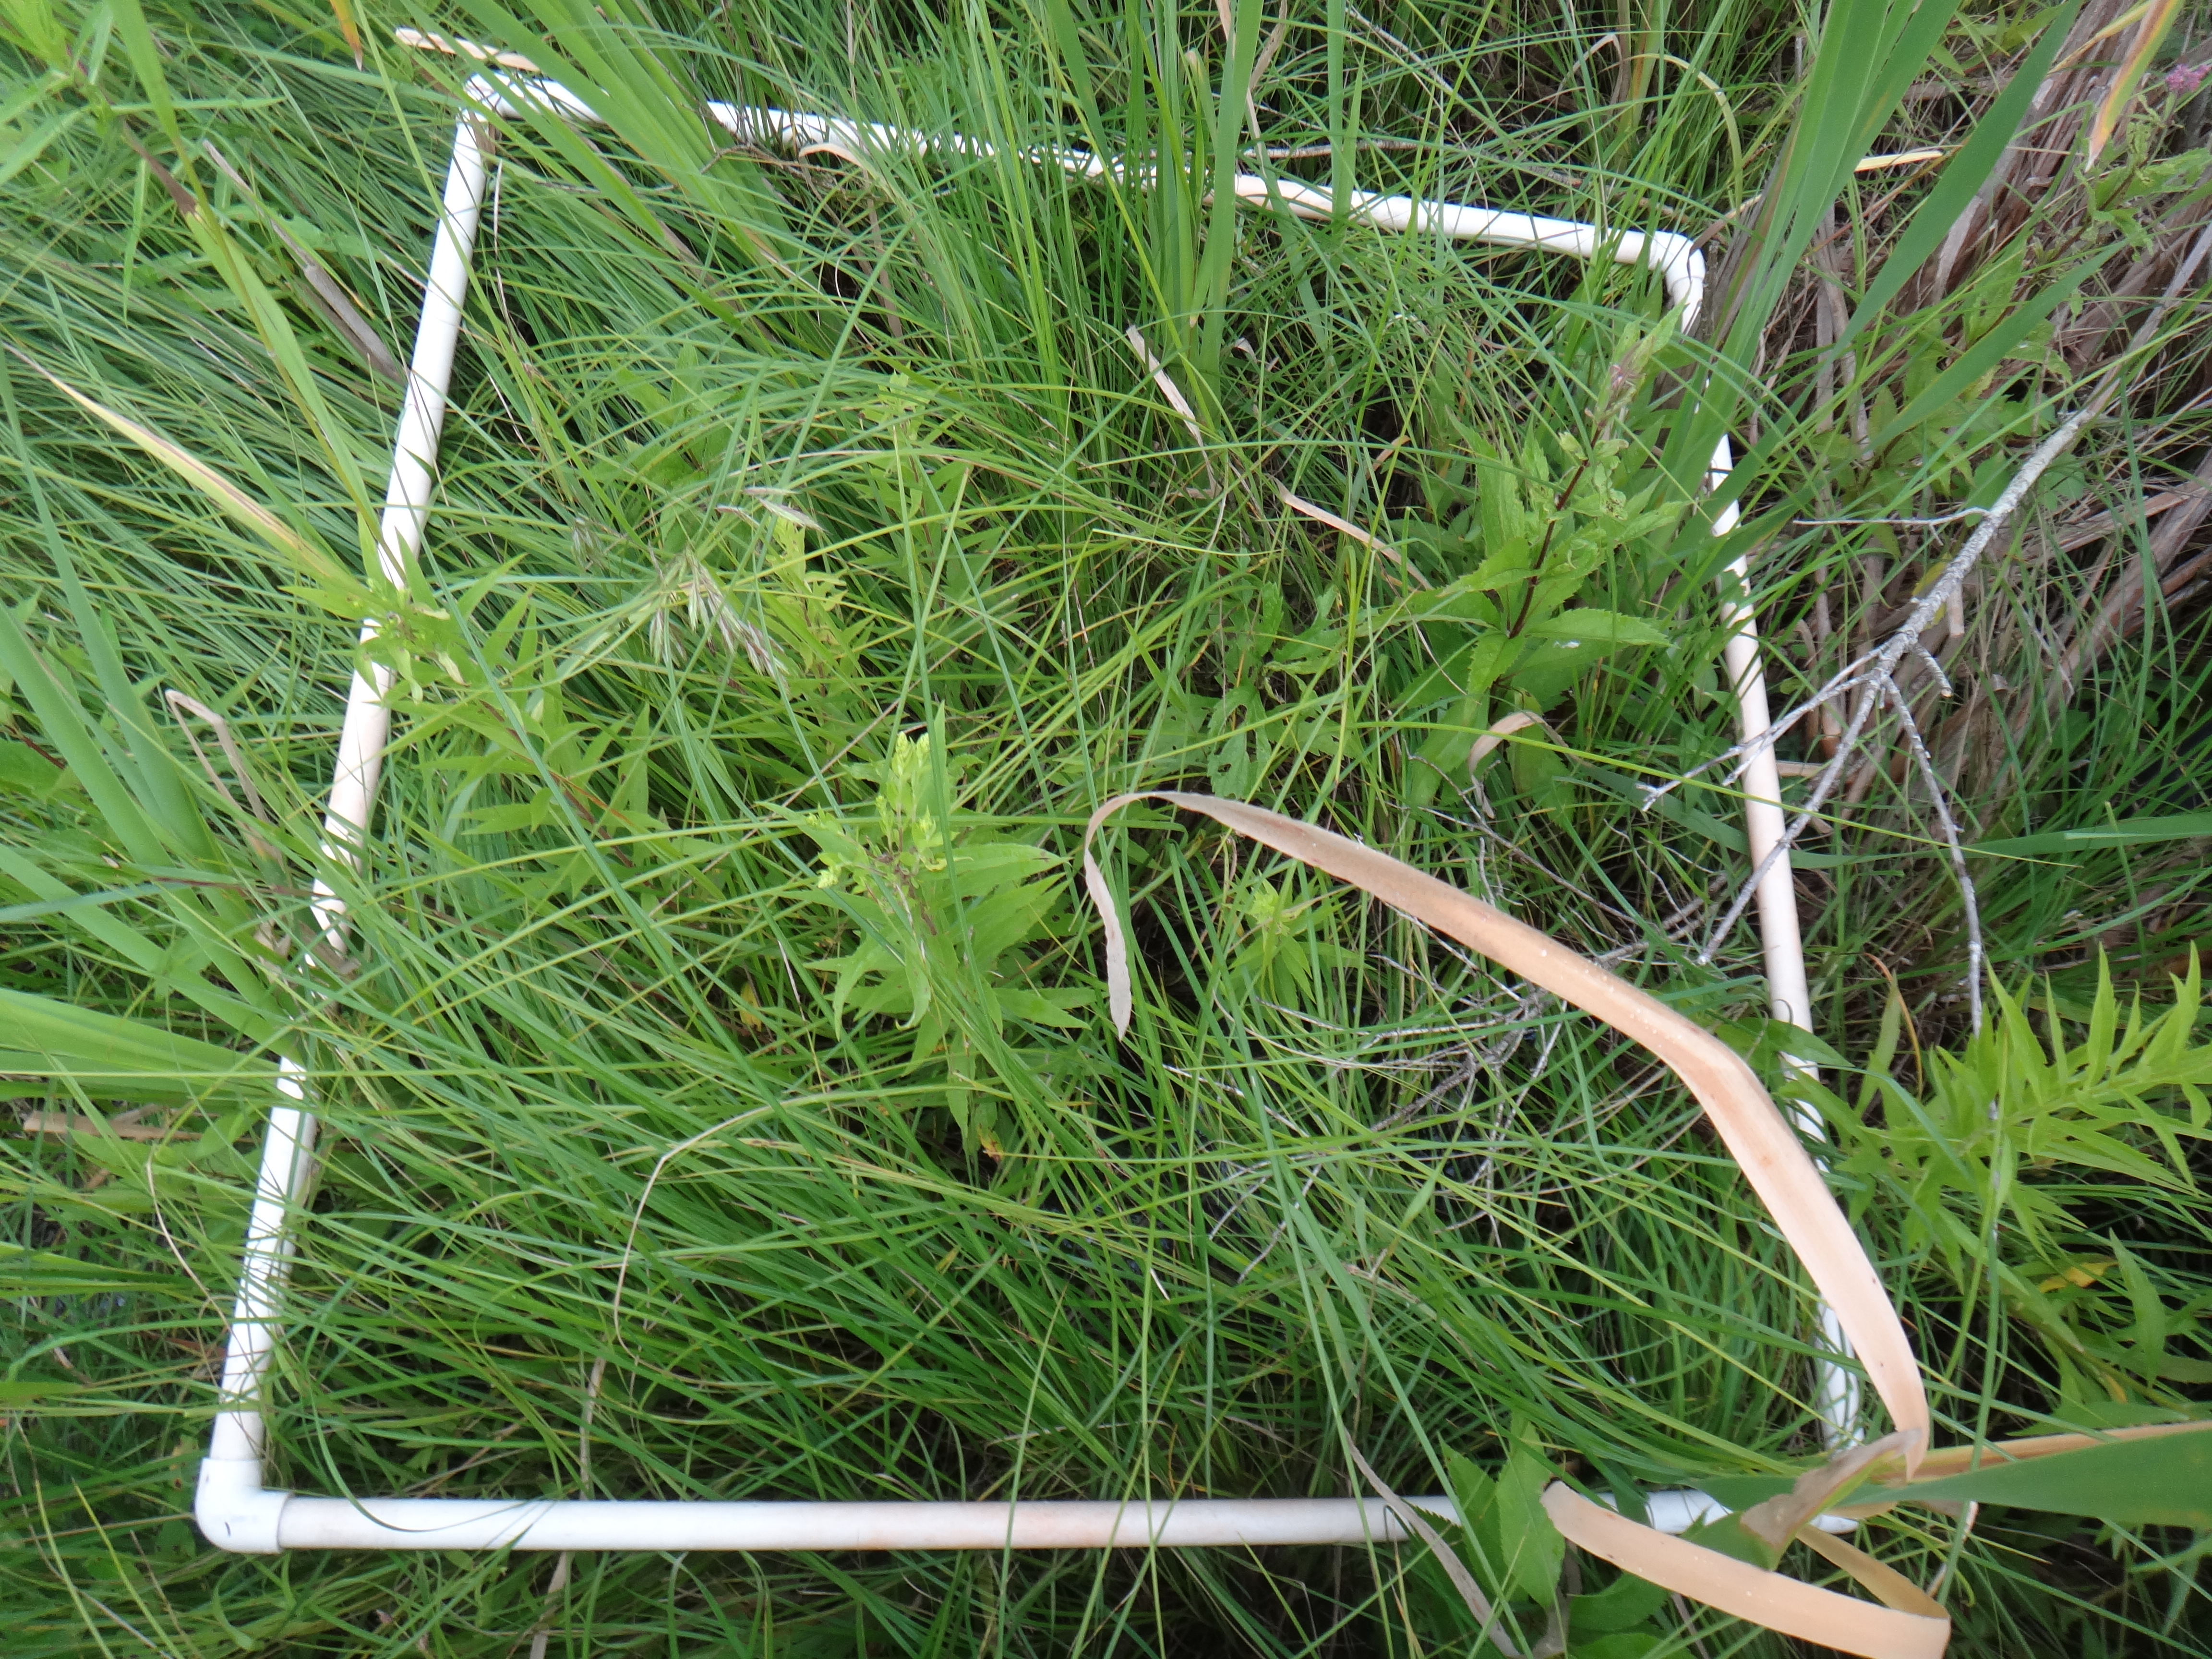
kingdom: Plantae
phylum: Tracheophyta
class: Magnoliopsida
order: Ericales
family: Primulaceae
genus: Lysimachia
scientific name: Lysimachia thyrsiflora
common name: Tufted loosestrife
